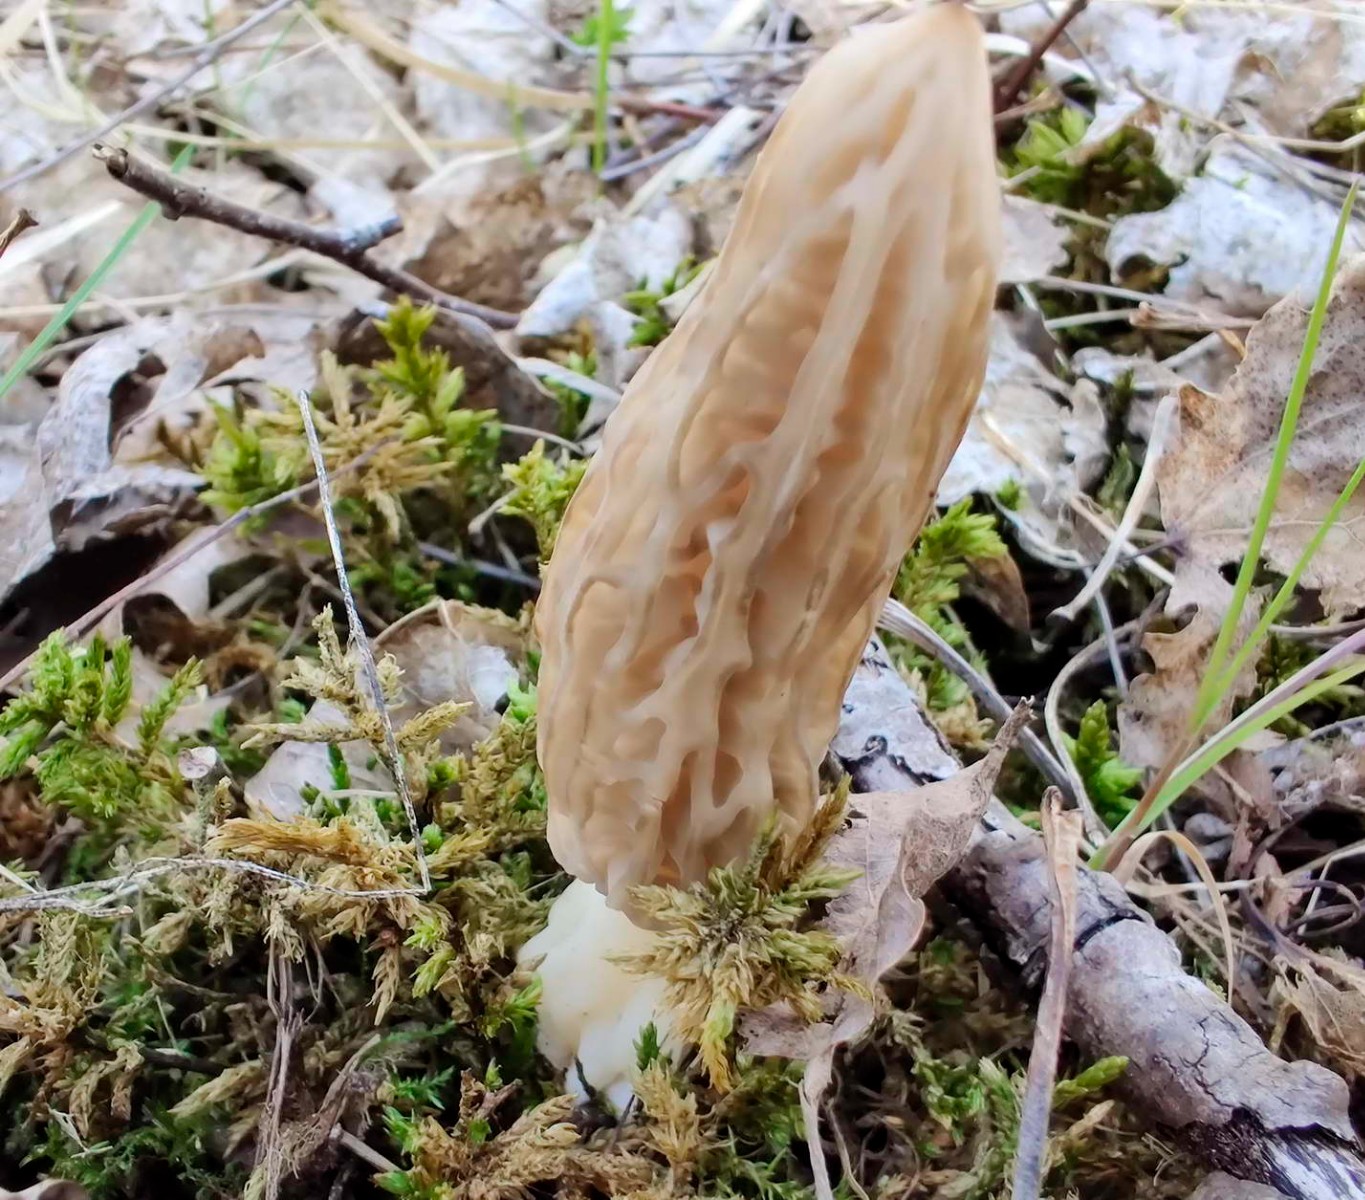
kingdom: Fungi
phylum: Ascomycota
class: Pezizomycetes
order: Pezizales
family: Morchellaceae
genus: Morchella
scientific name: Morchella esculenta
